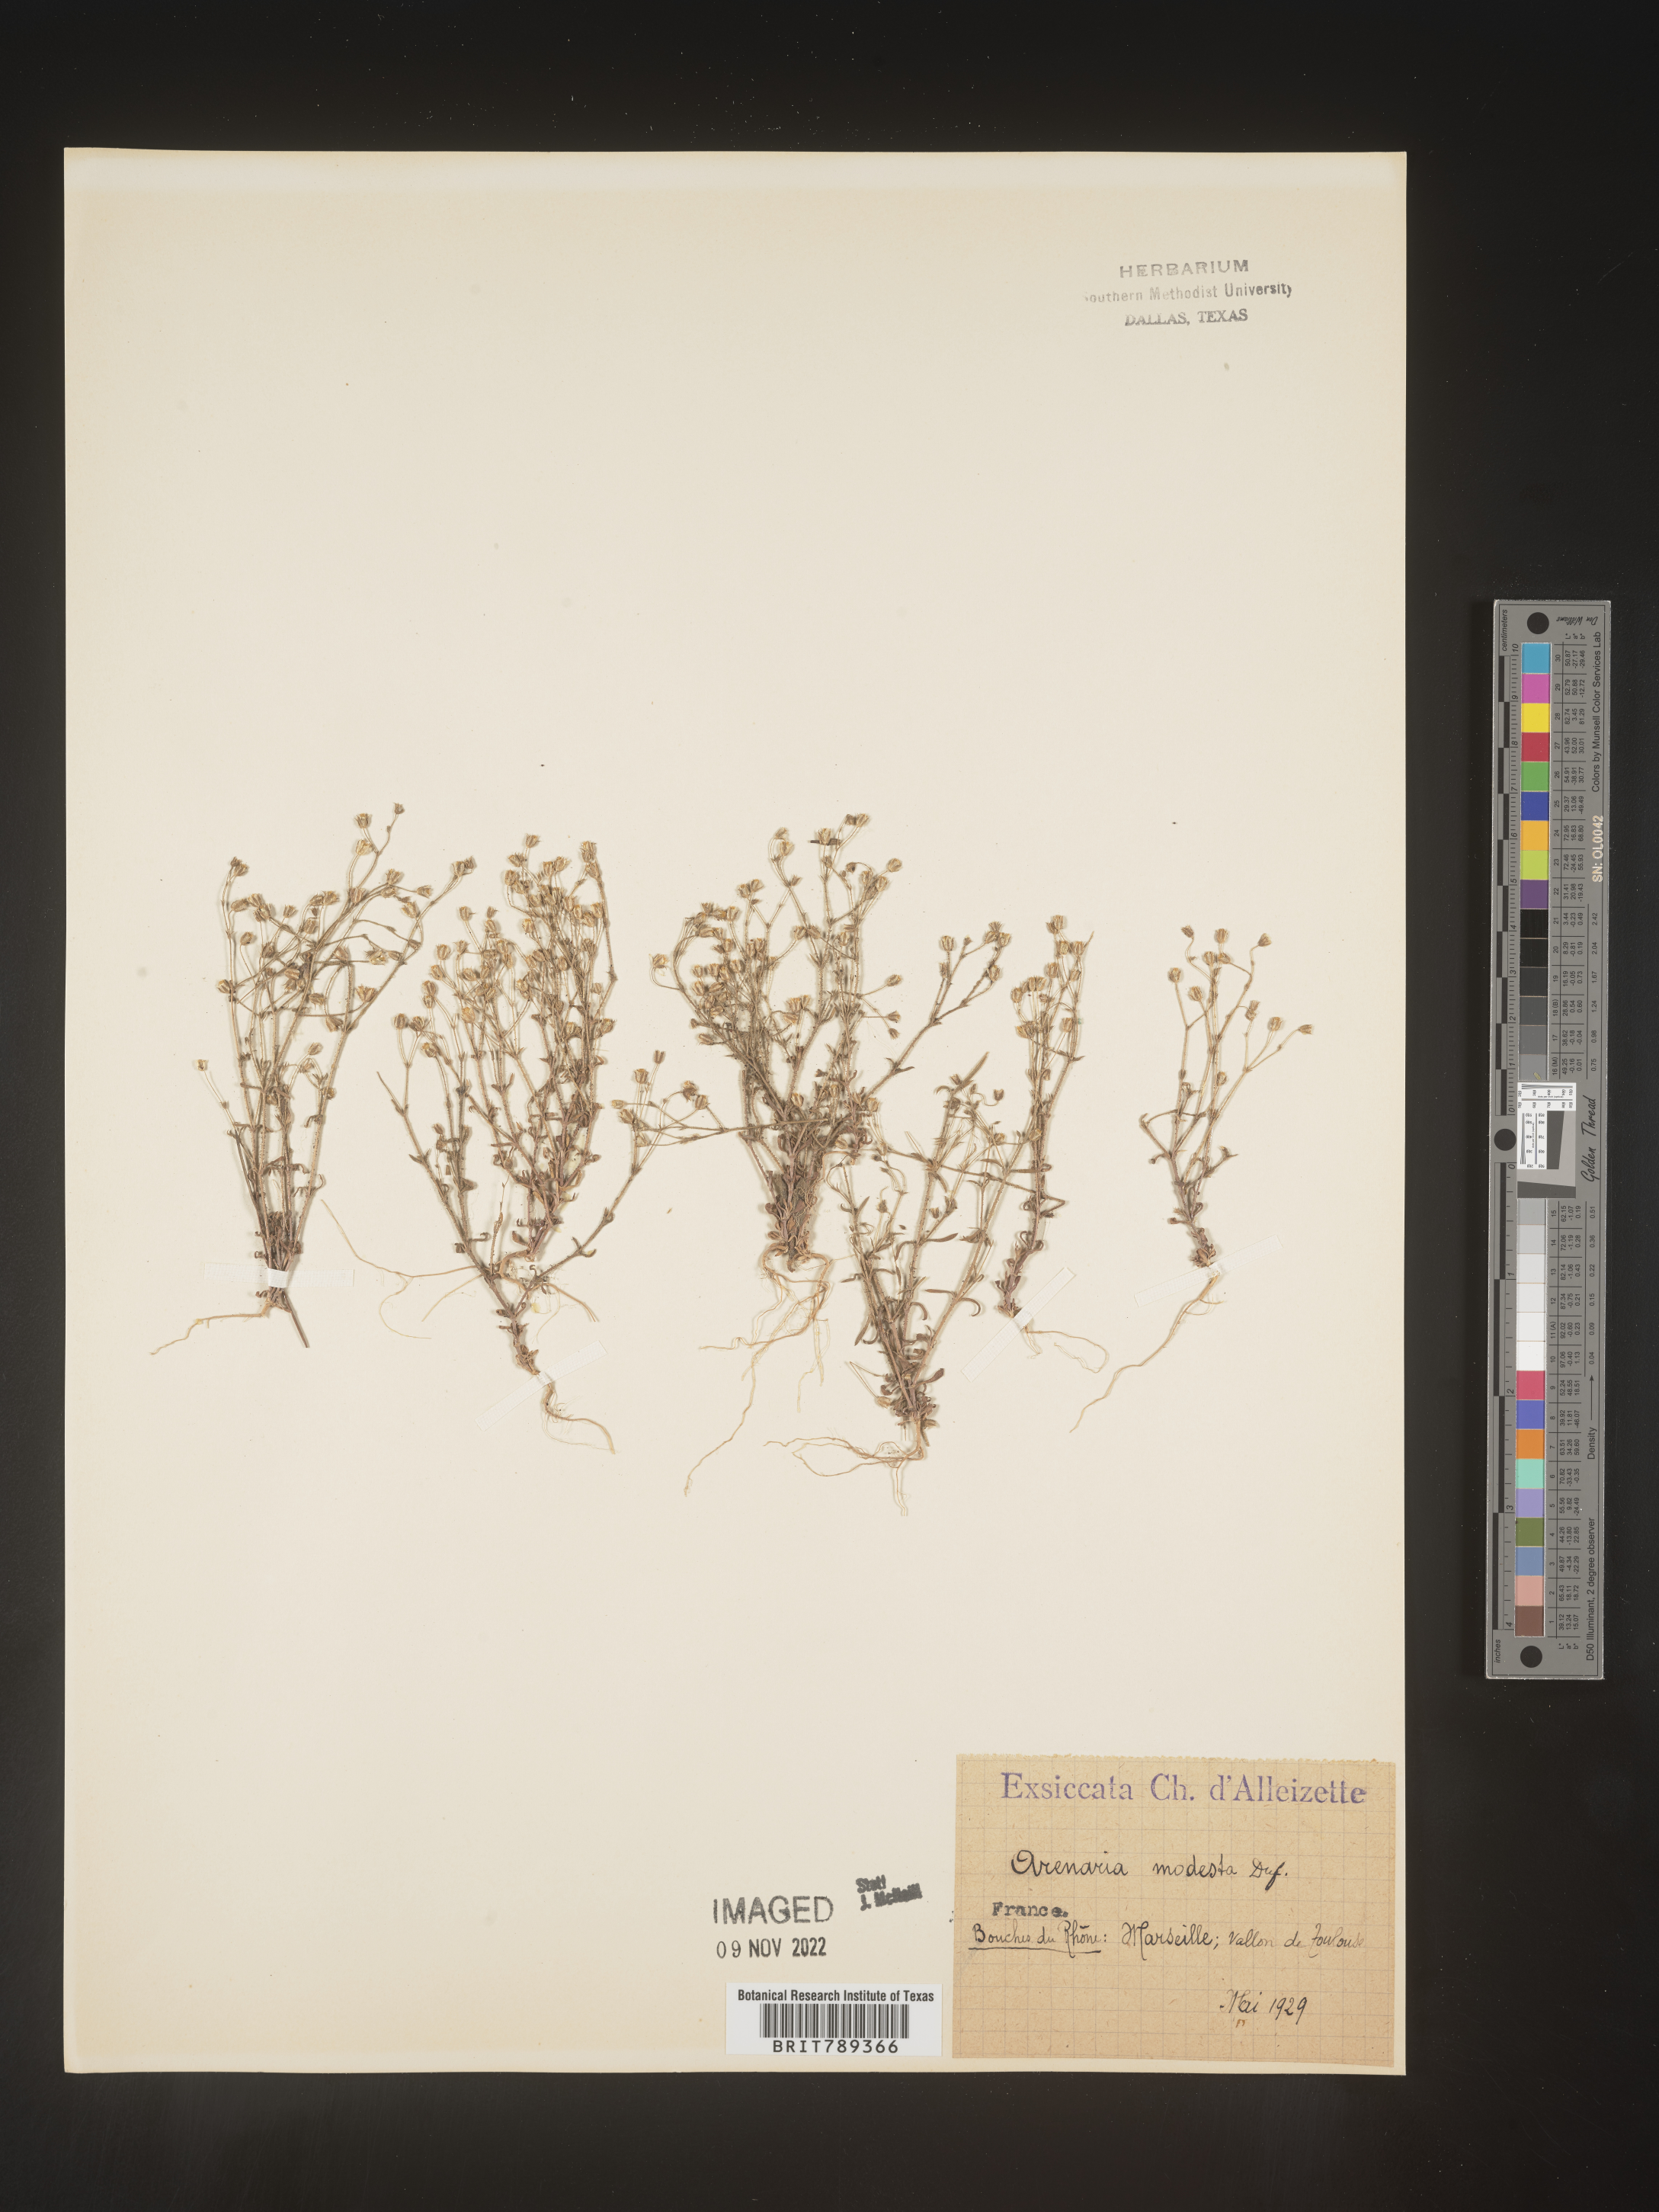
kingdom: Plantae
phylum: Tracheophyta
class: Magnoliopsida
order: Caryophyllales
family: Caryophyllaceae
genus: Arenaria
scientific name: Arenaria
